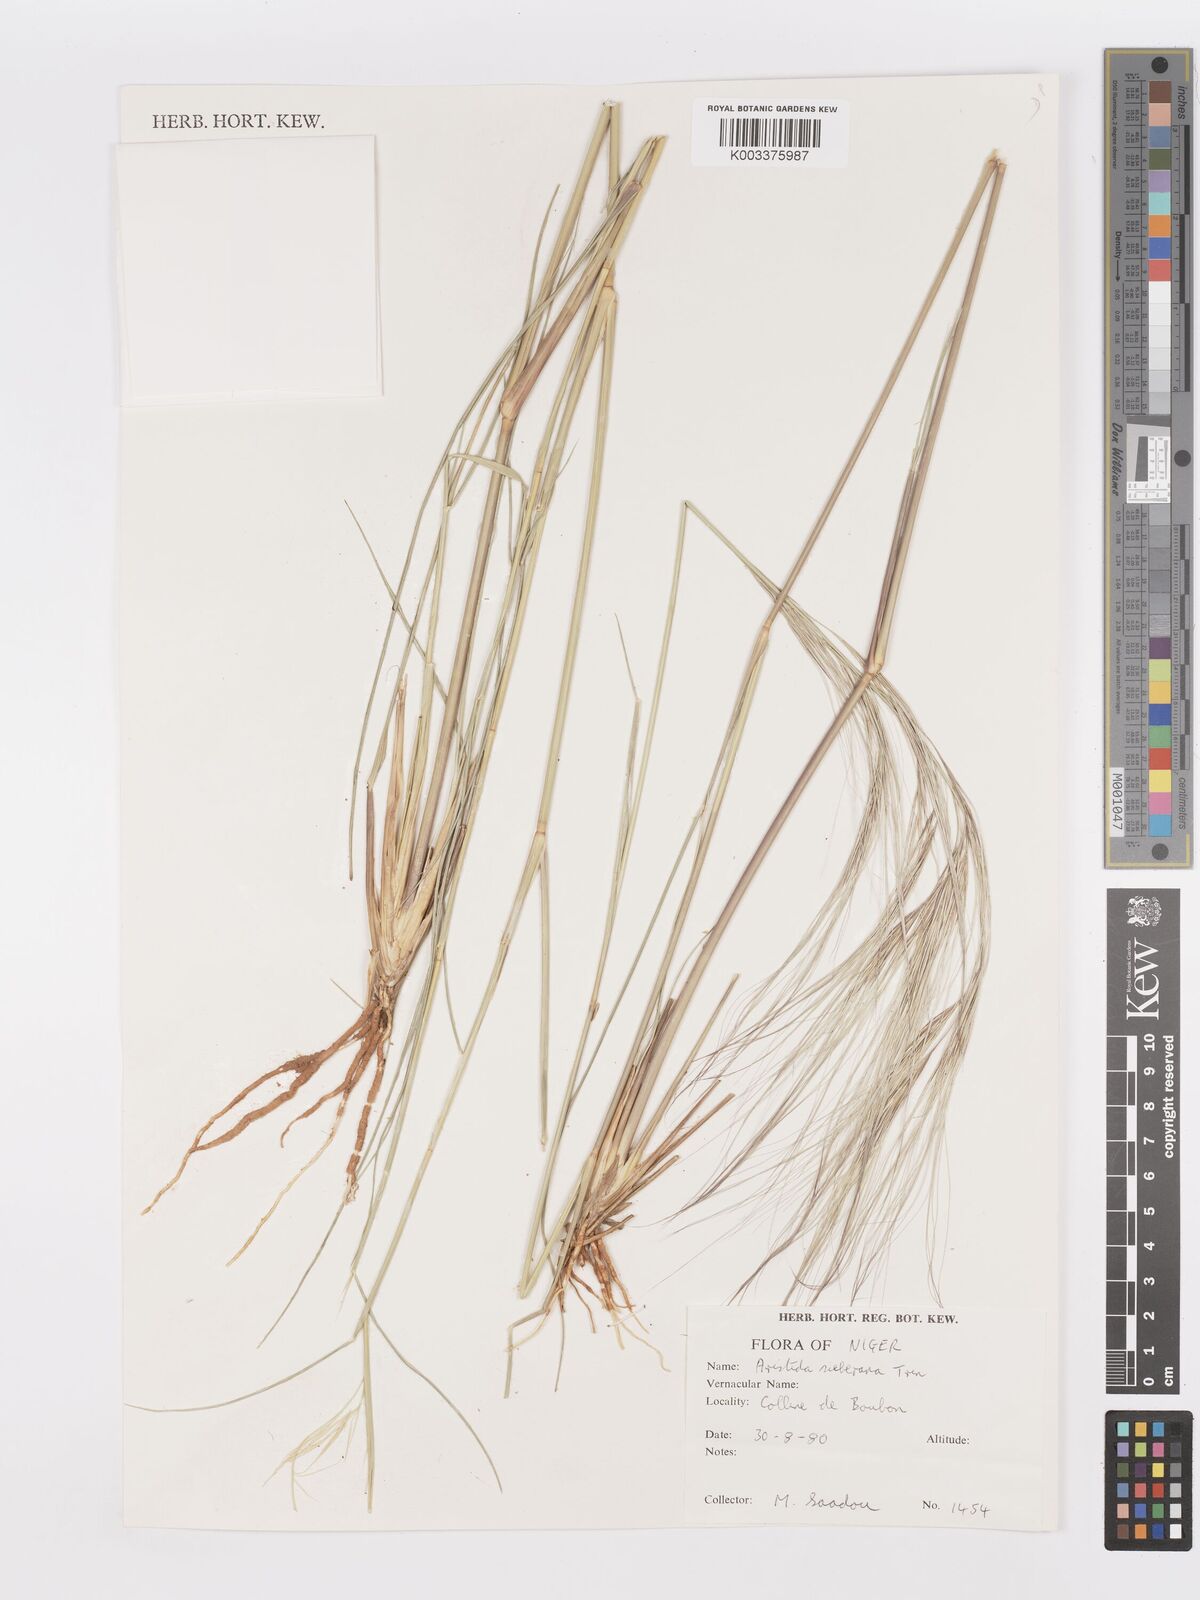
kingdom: Plantae
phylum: Tracheophyta
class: Liliopsida
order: Poales
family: Poaceae
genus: Aristida
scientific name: Aristida sieberiana
